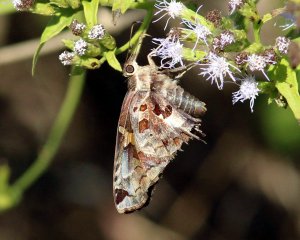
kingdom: Animalia
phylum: Arthropoda
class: Insecta
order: Lepidoptera
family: Hesperiidae
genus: Chioides
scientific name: Chioides zilpa
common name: Zilpa Longtail
